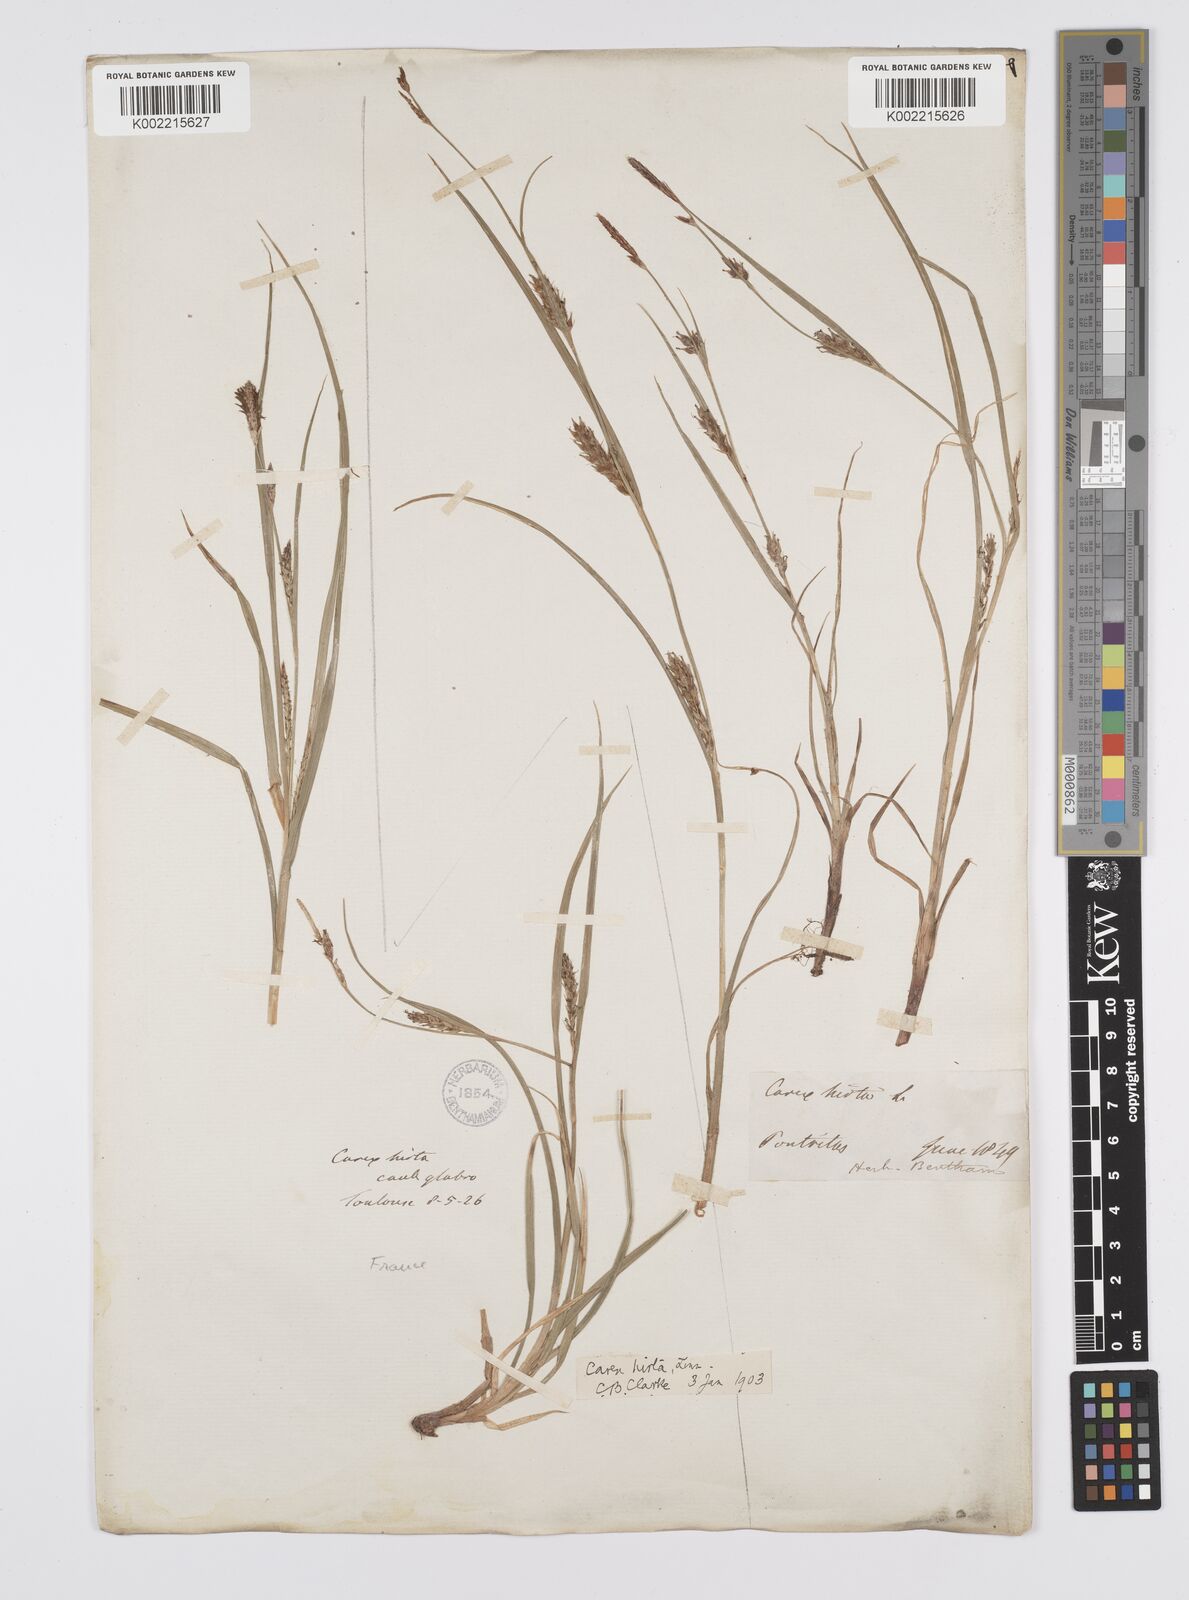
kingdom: Plantae
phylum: Tracheophyta
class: Liliopsida
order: Poales
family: Cyperaceae
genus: Carex
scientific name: Carex hirta
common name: Hairy sedge
